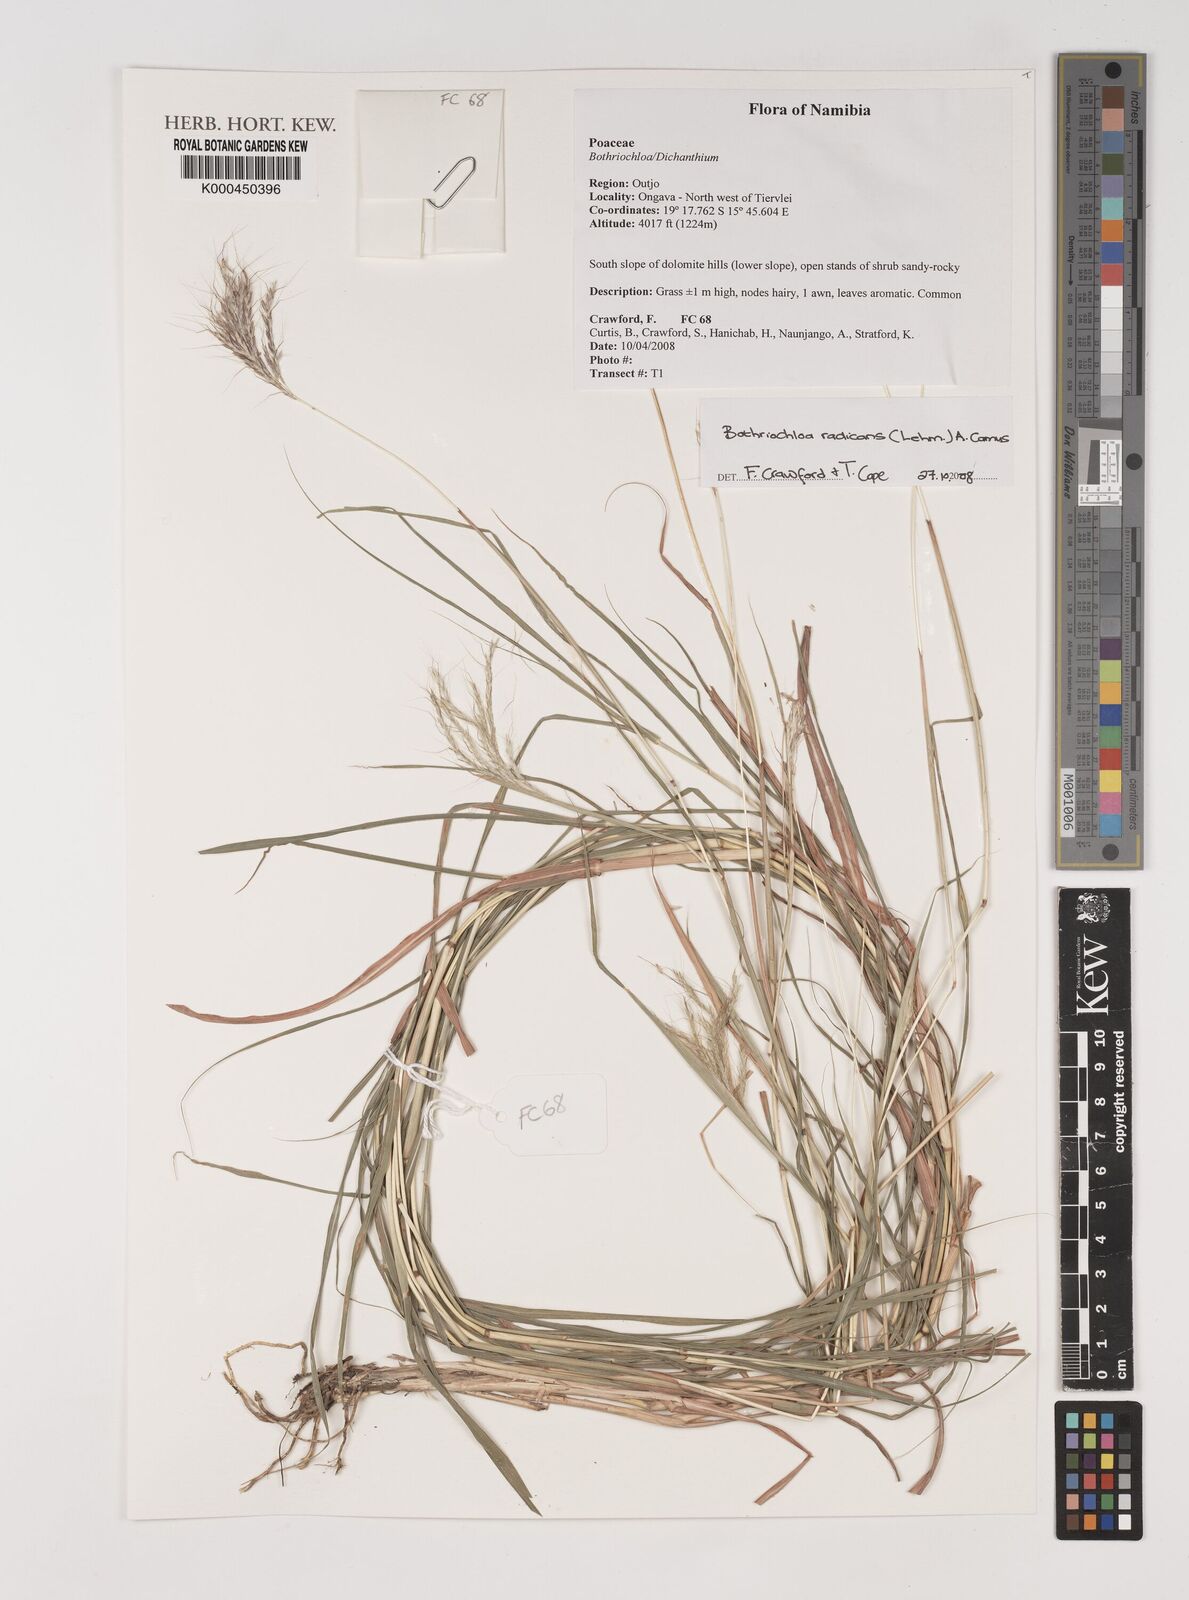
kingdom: Plantae
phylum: Tracheophyta
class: Liliopsida
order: Poales
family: Poaceae
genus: Bothriochloa
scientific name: Bothriochloa radicans
